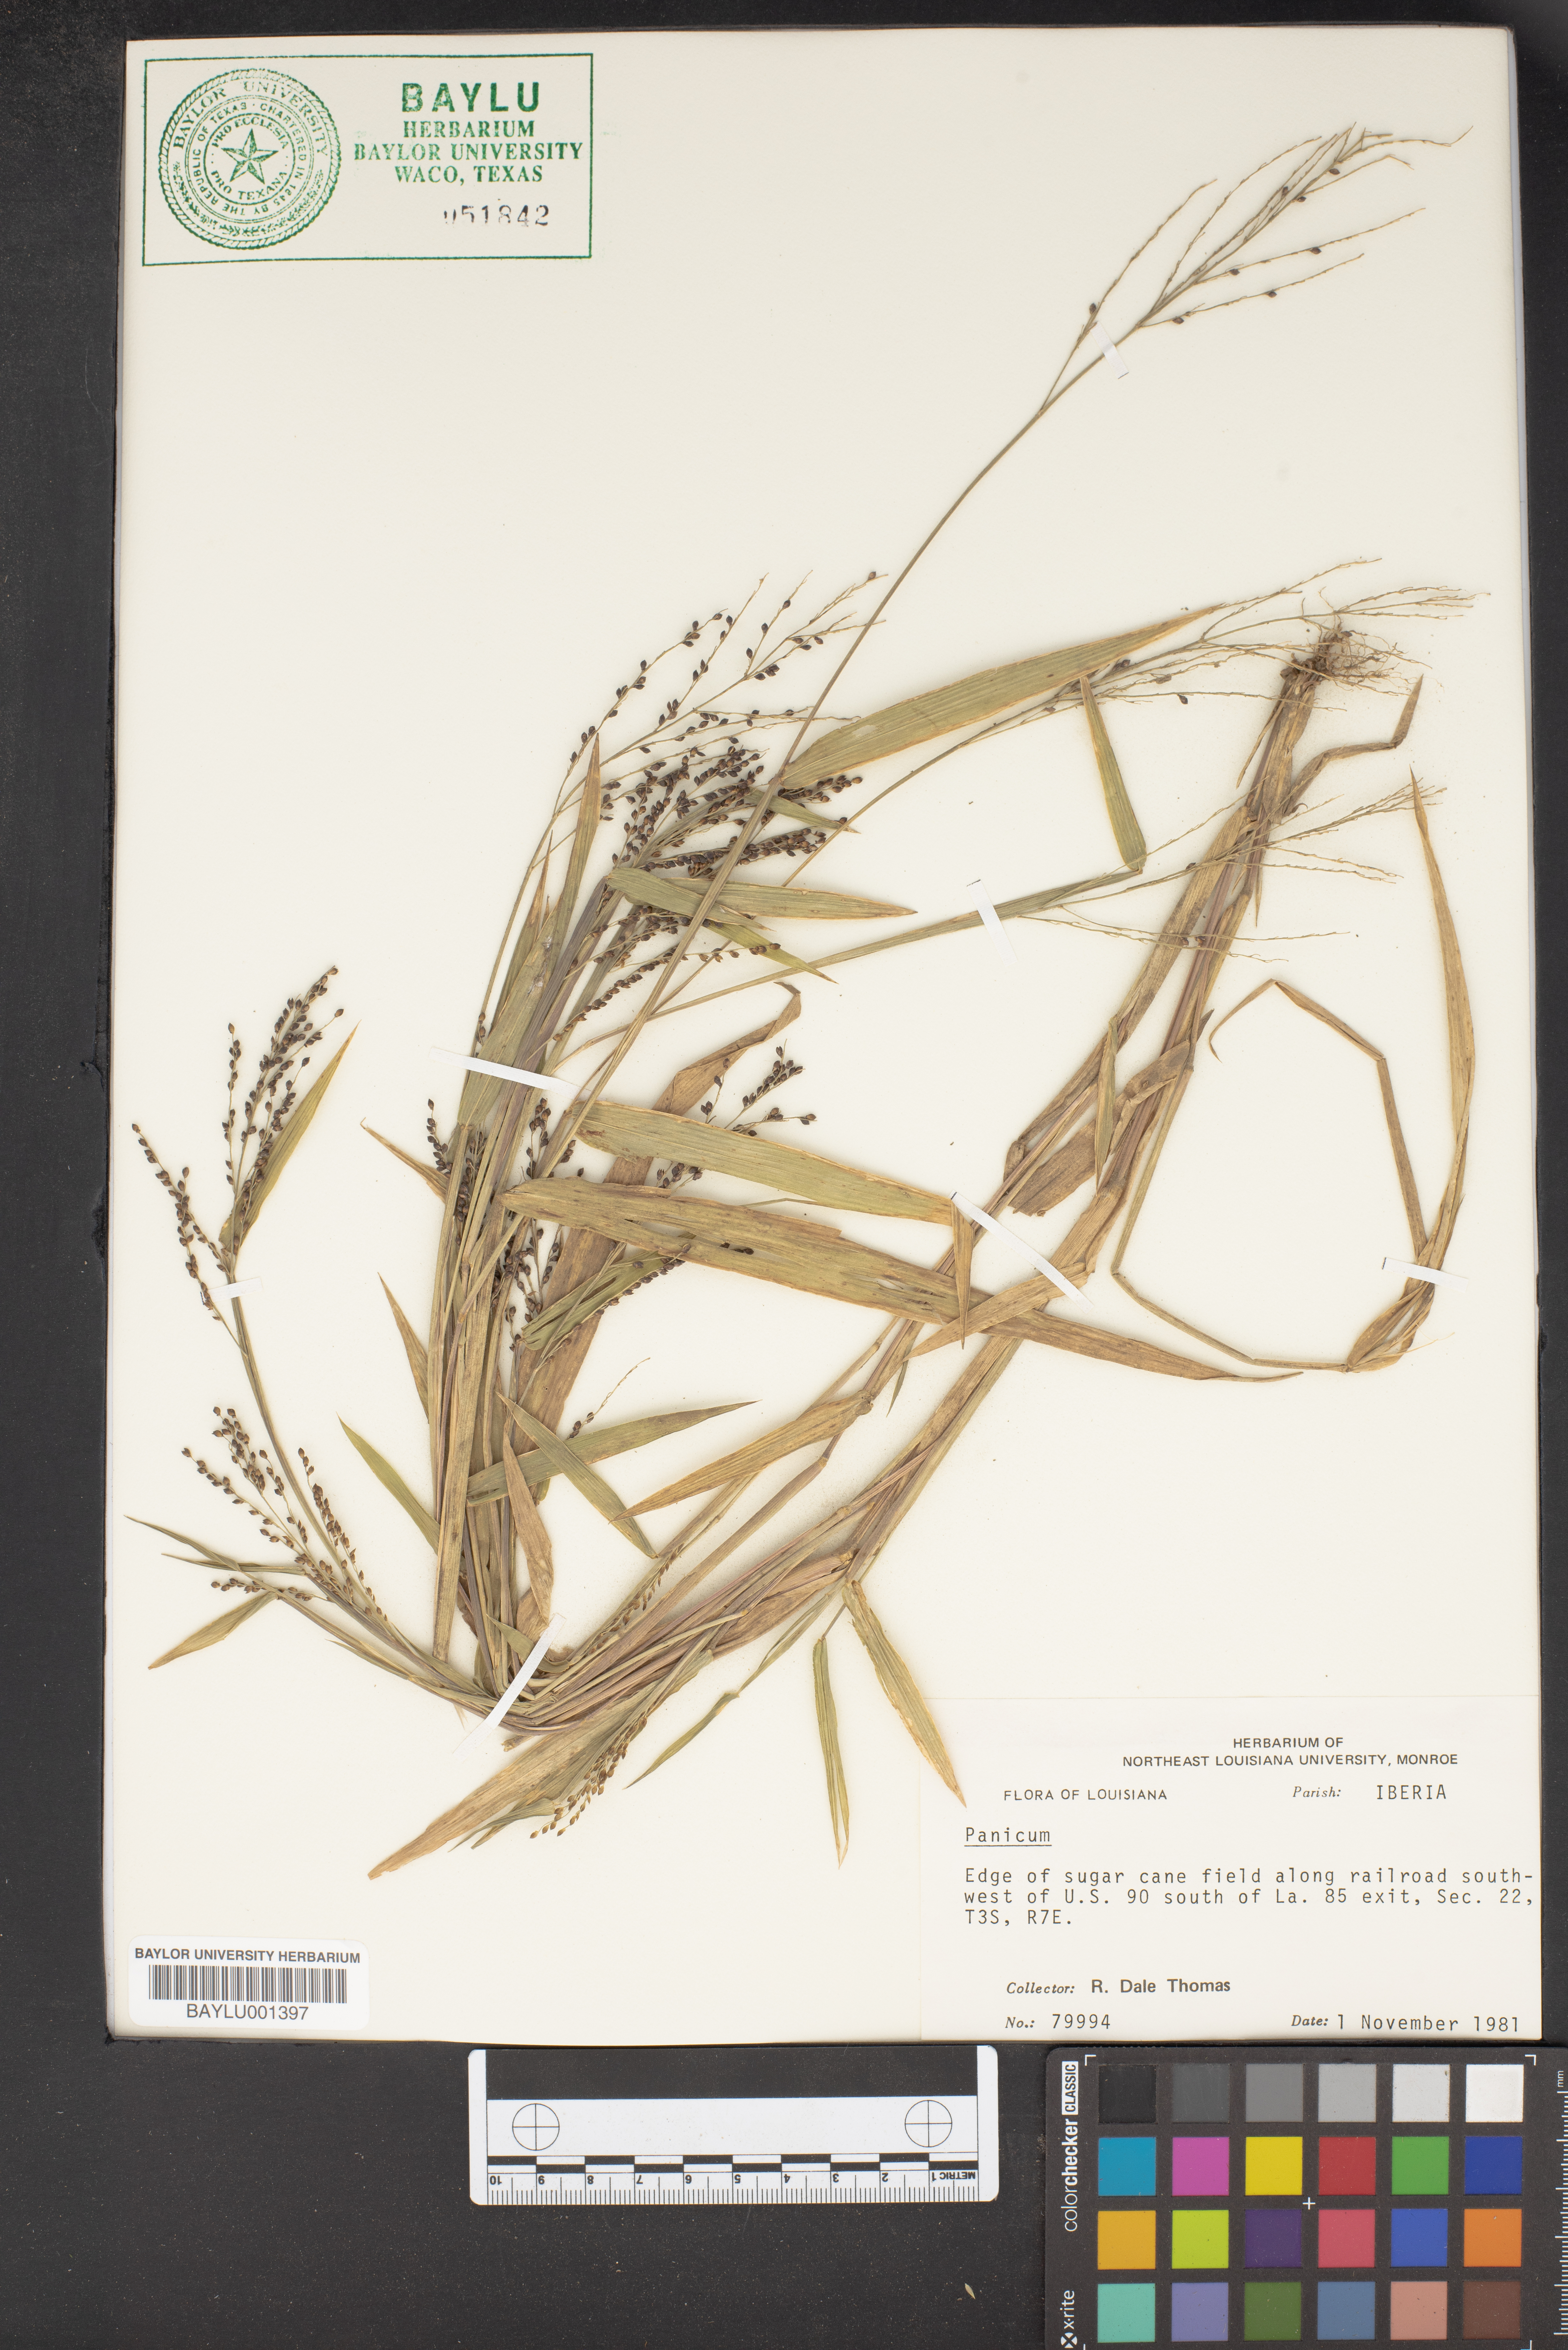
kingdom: Plantae
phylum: Tracheophyta
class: Liliopsida
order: Poales
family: Poaceae
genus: Panicum
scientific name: Panicum
